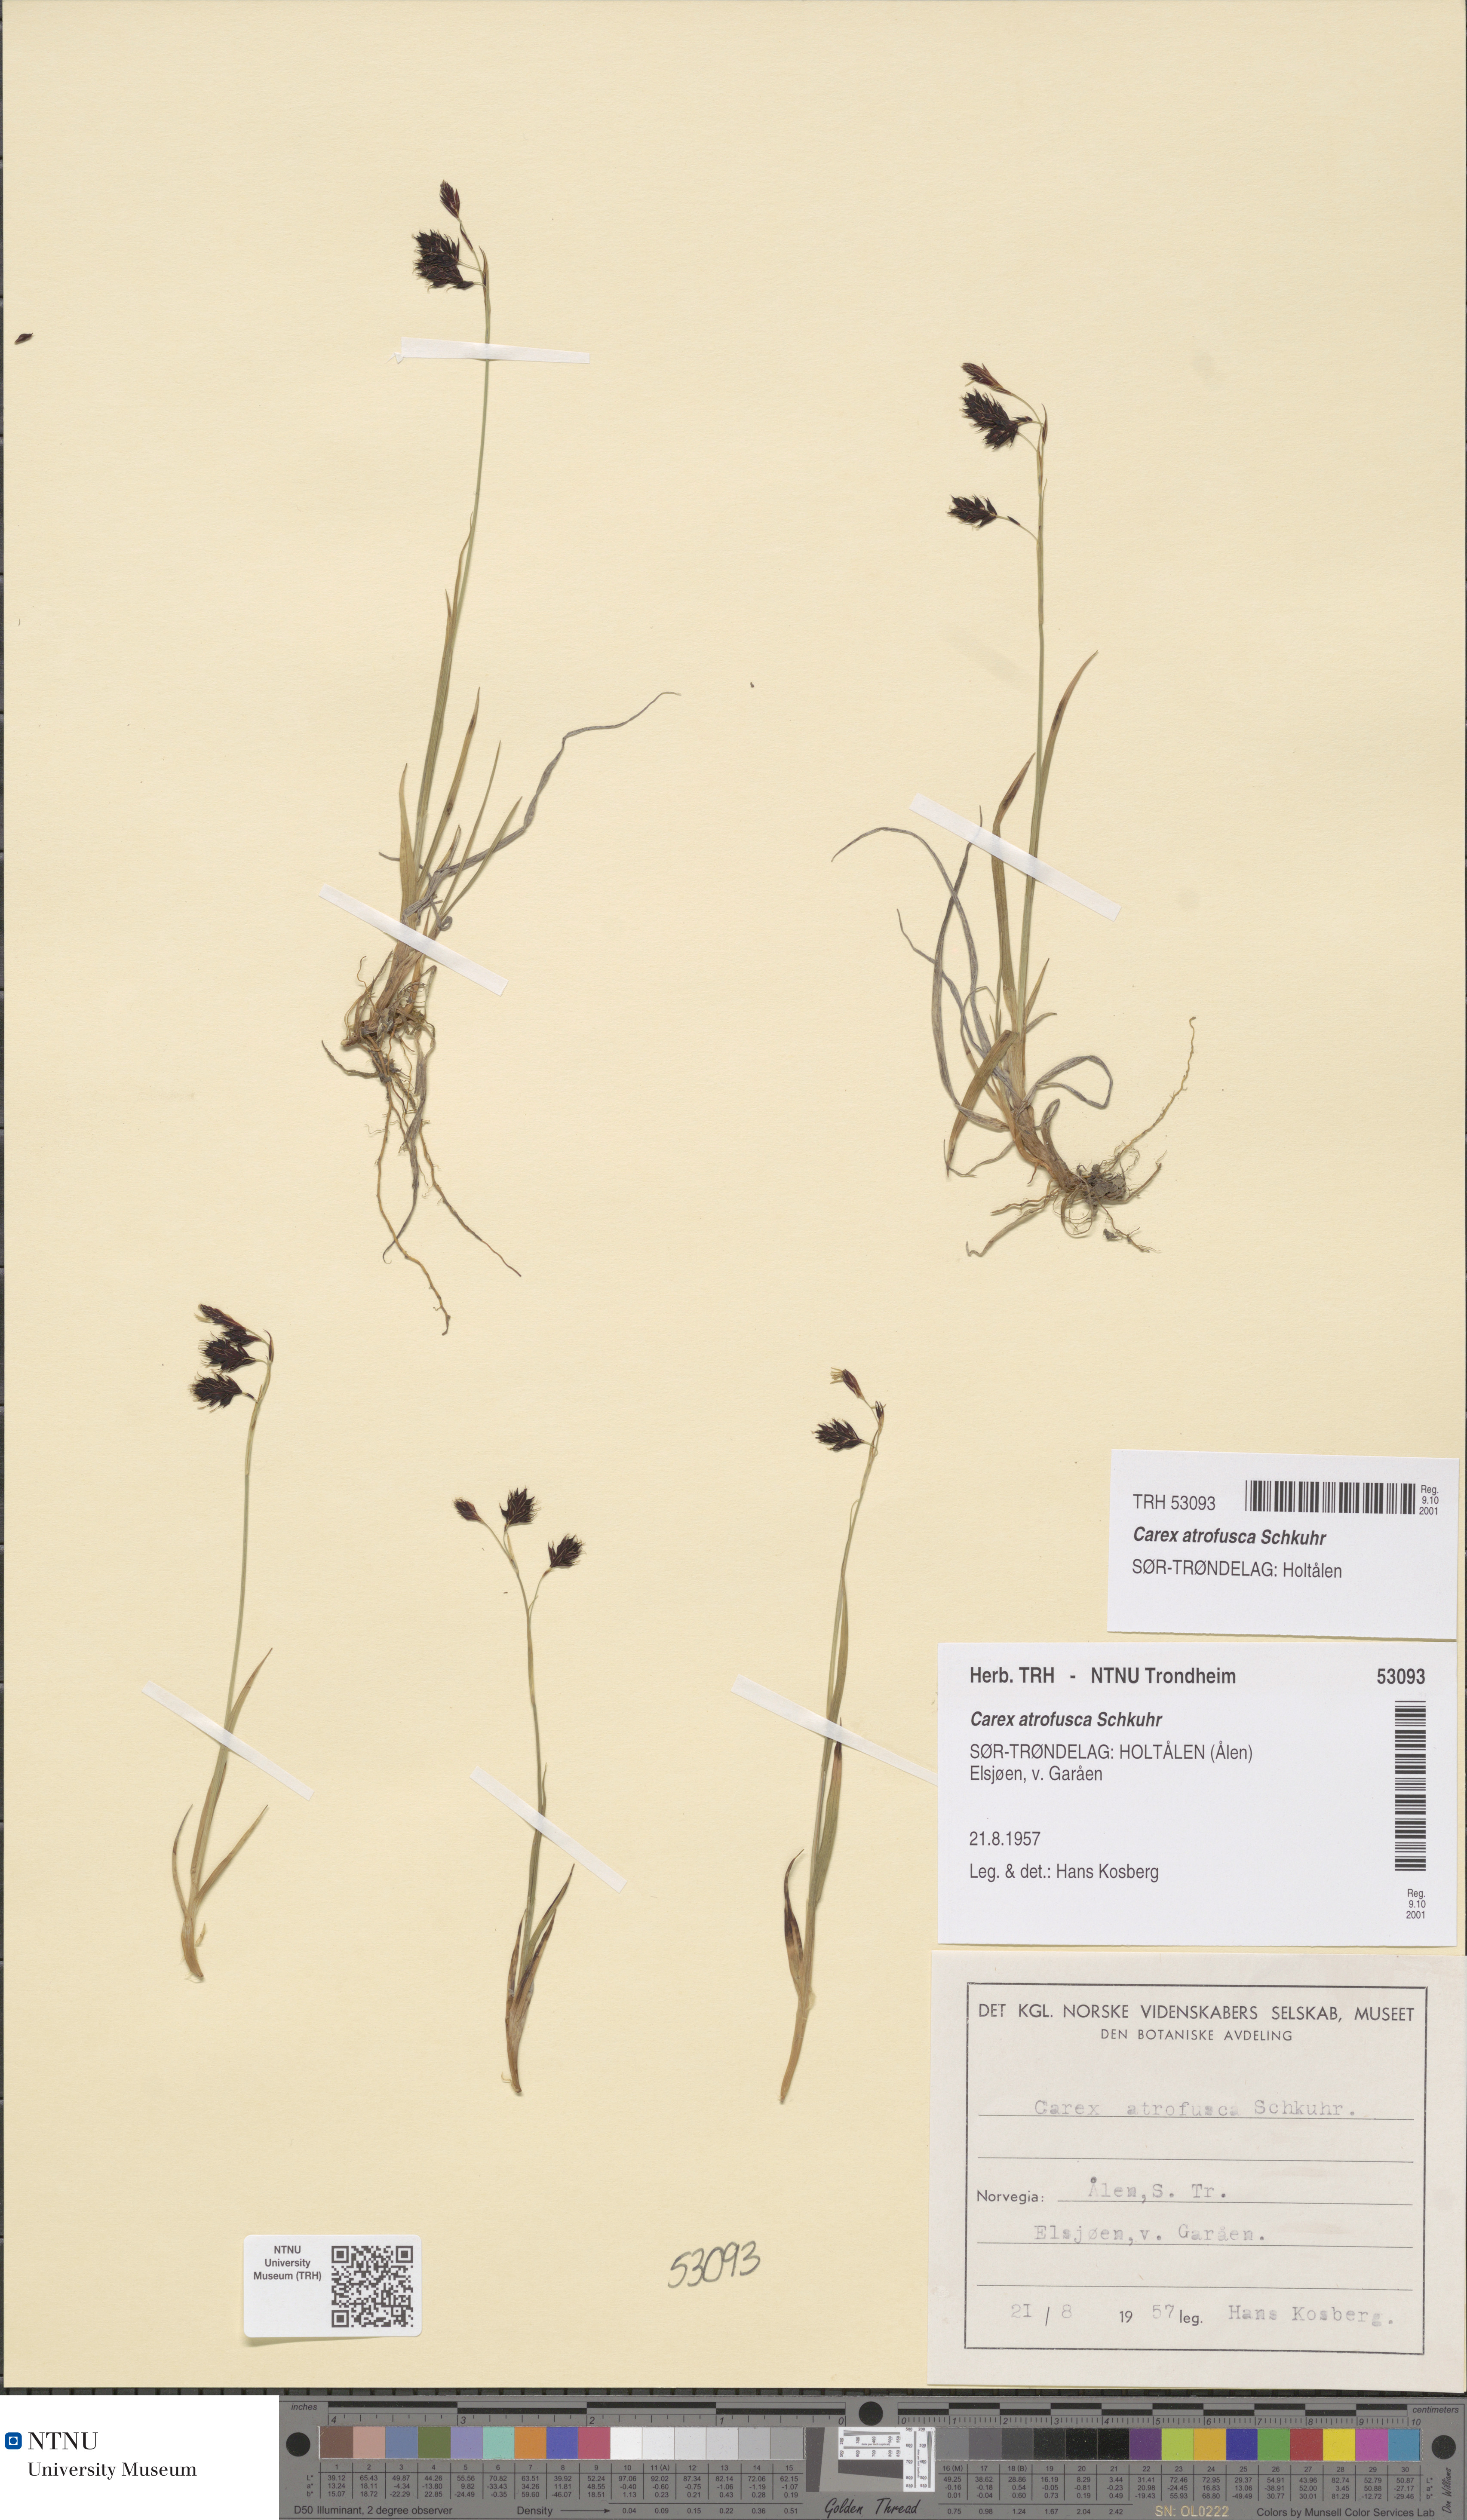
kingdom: Plantae
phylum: Tracheophyta
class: Liliopsida
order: Poales
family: Cyperaceae
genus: Carex
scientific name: Carex atrofusca
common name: Scorched alpine-sedge
